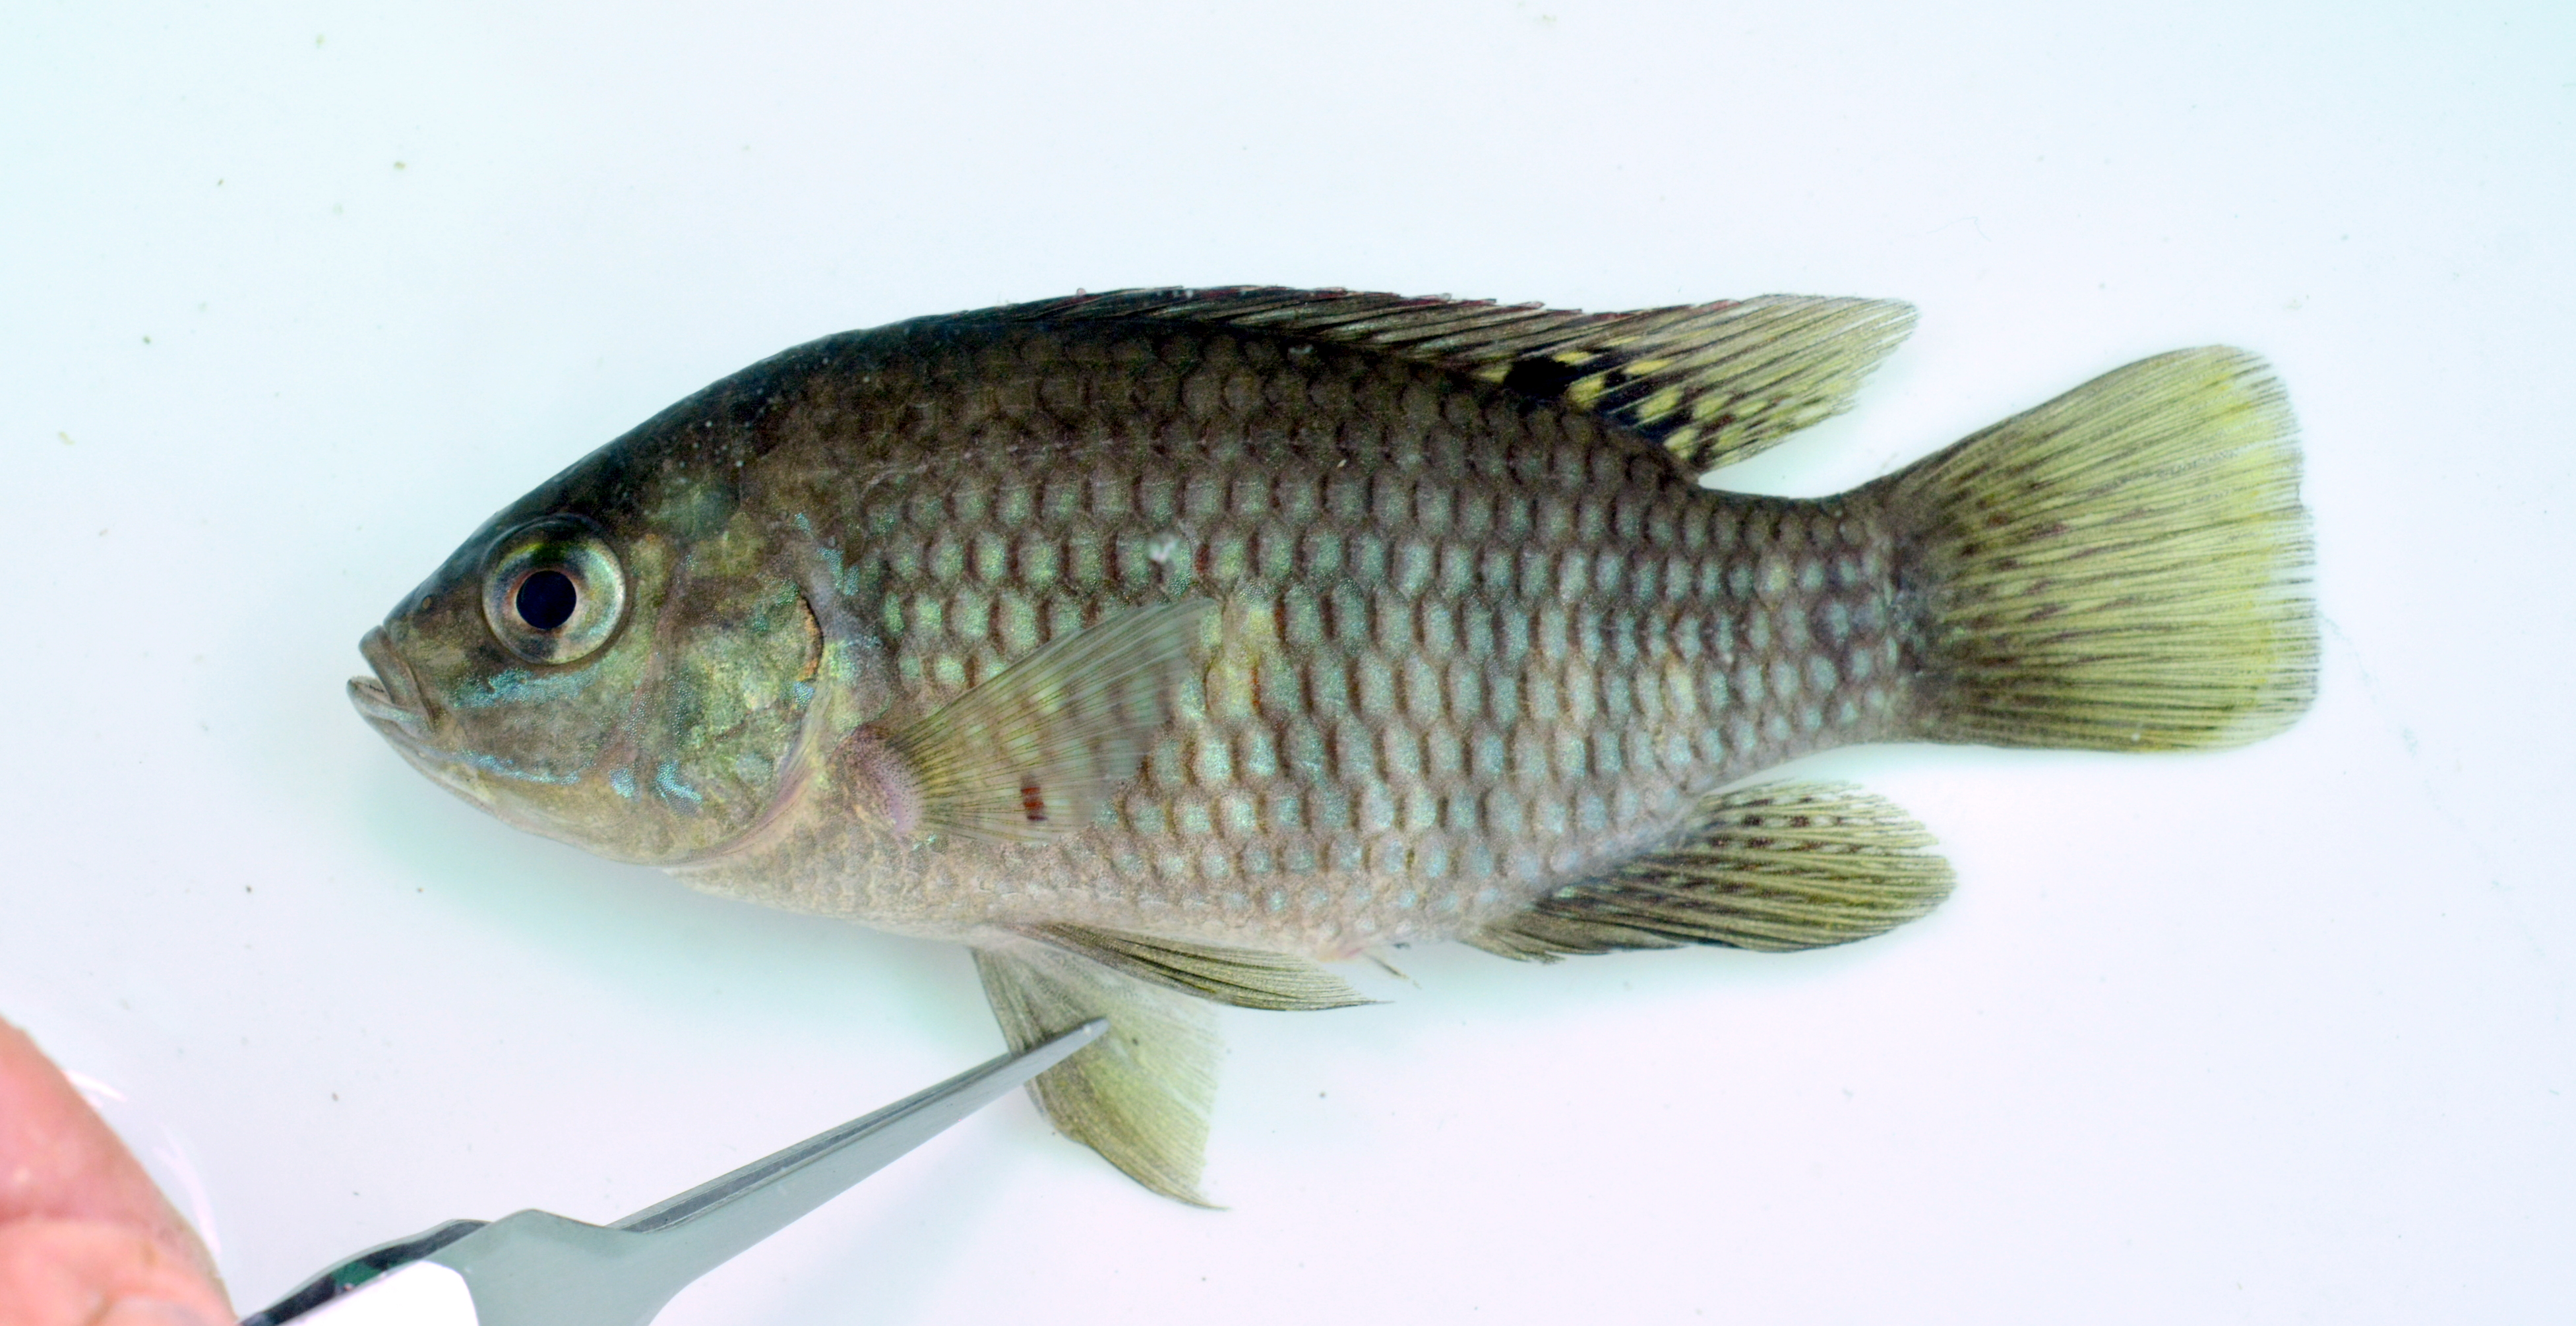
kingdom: Animalia
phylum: Chordata
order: Perciformes
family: Cichlidae
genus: Tilapia
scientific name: Tilapia ruweti
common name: Okavango tilapia
